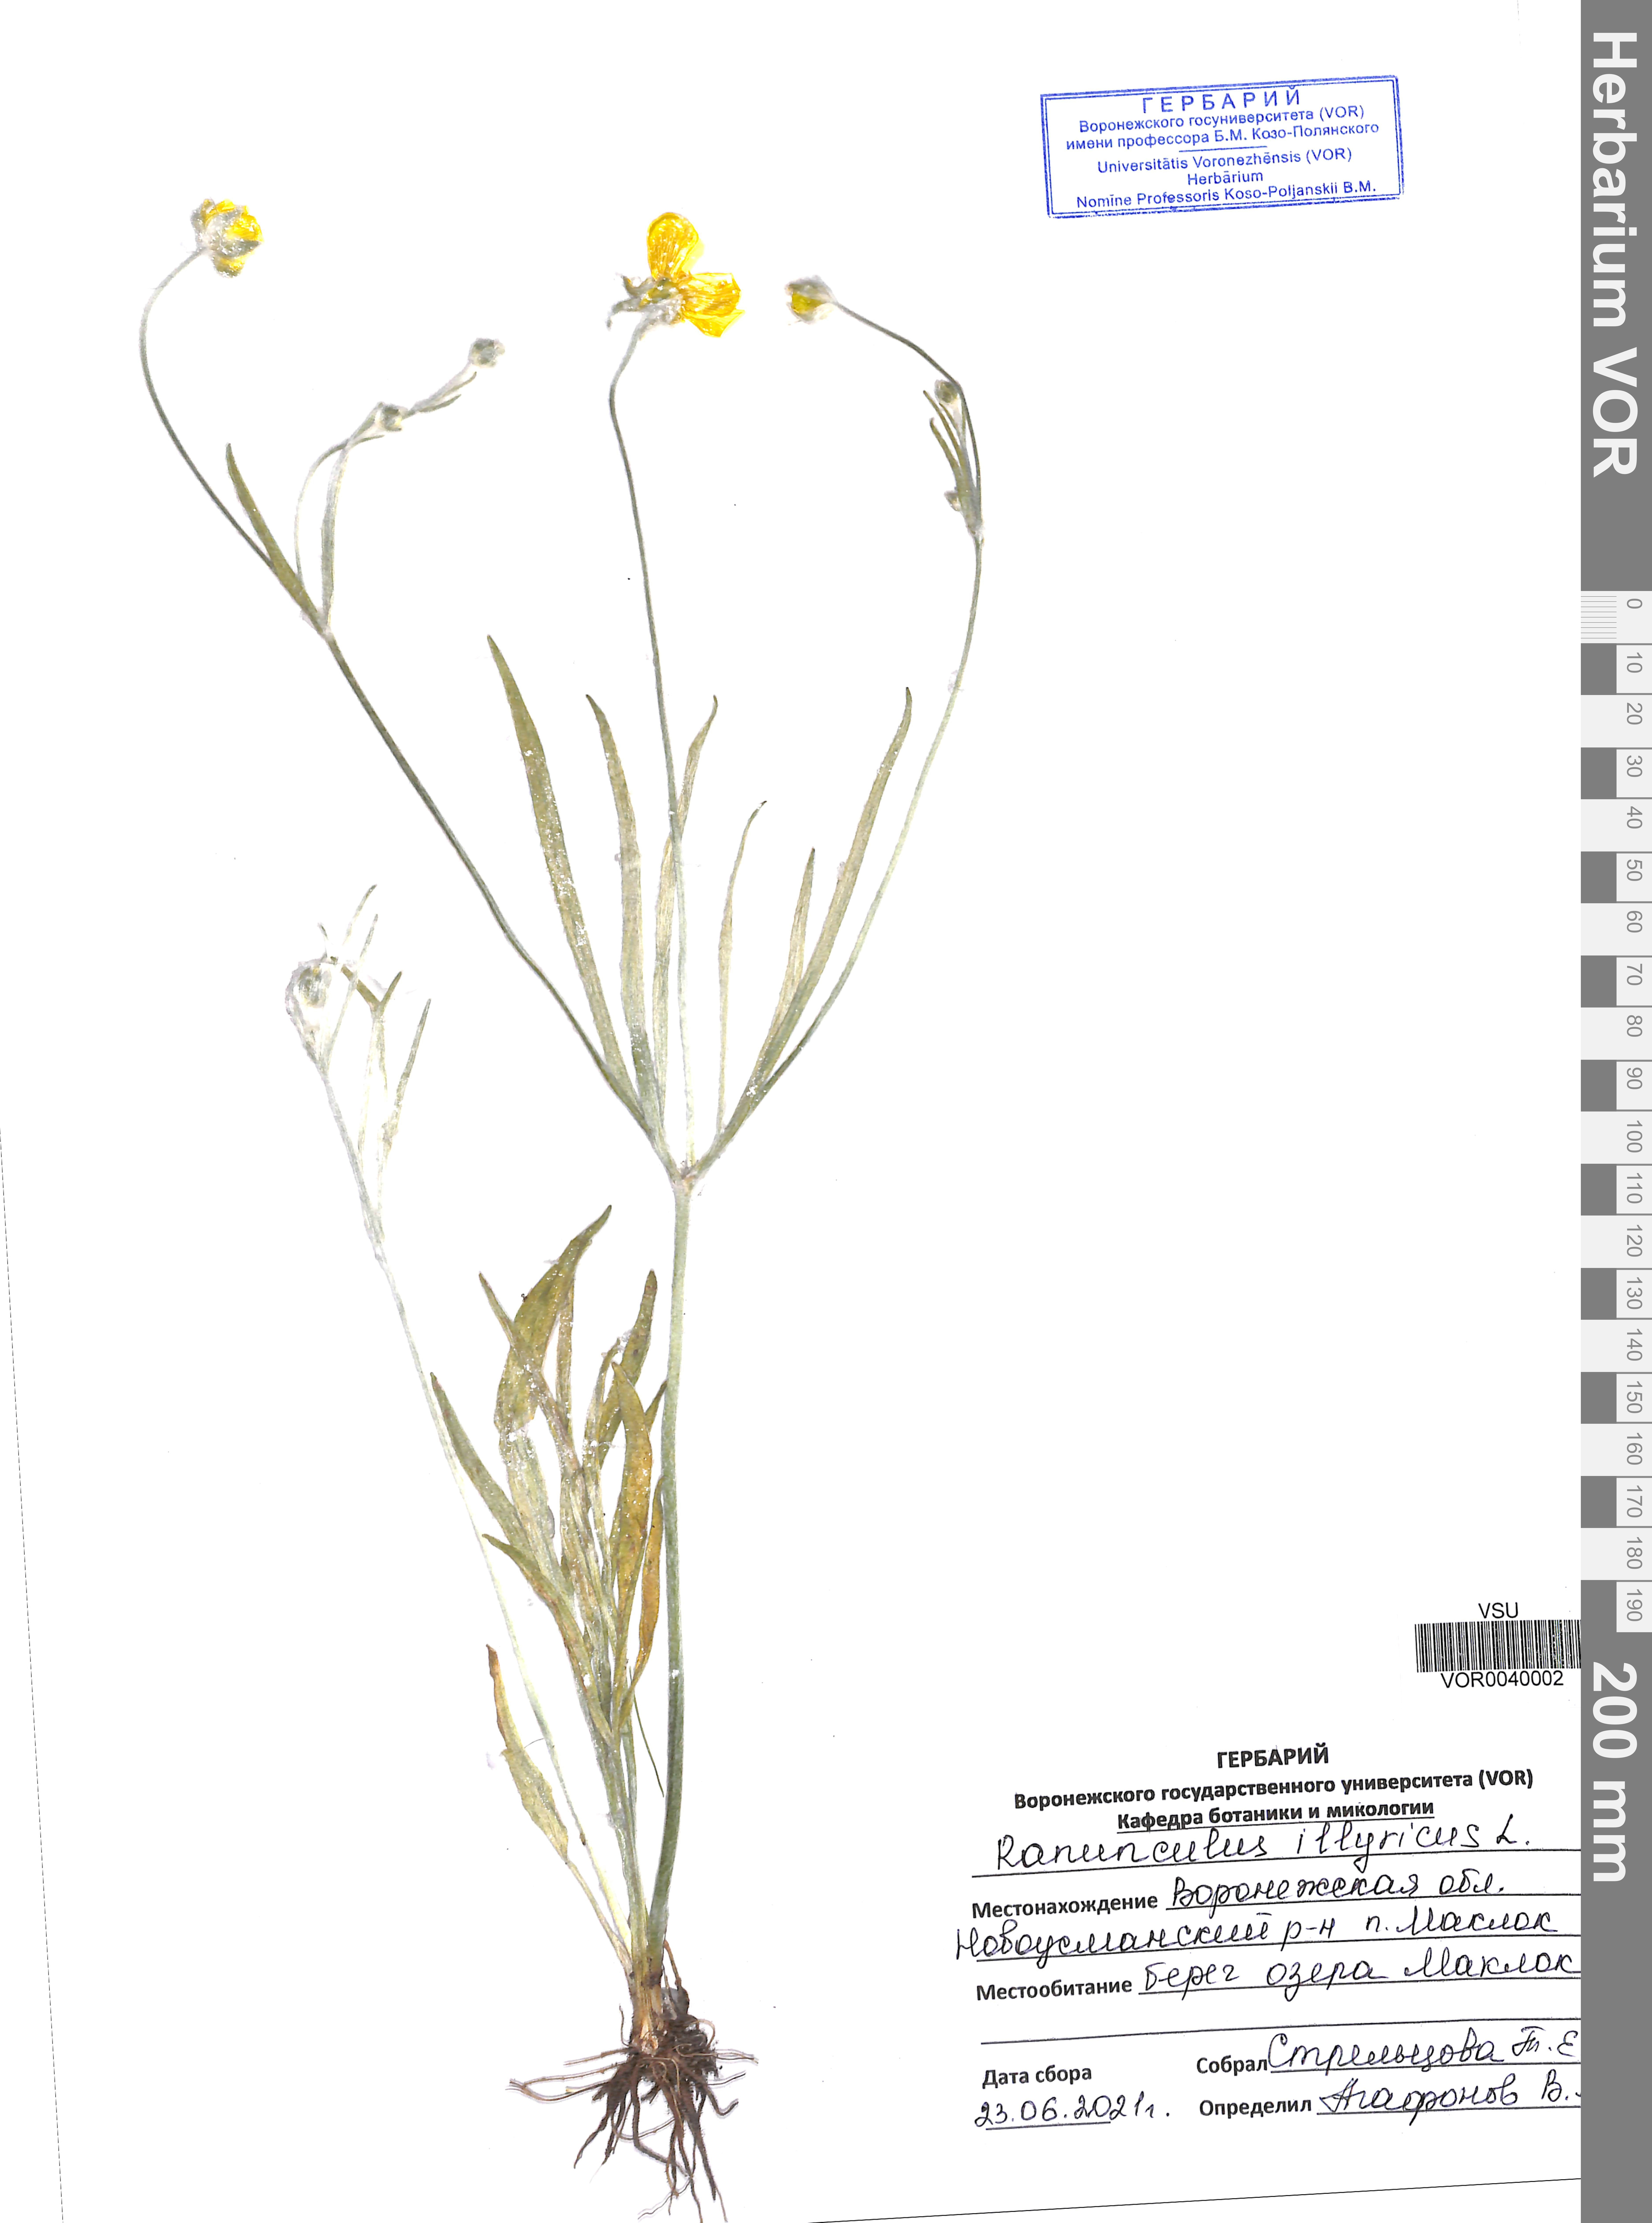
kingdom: Plantae
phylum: Tracheophyta
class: Magnoliopsida
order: Ranunculales
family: Ranunculaceae
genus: Ranunculus
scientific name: Ranunculus illyricus
